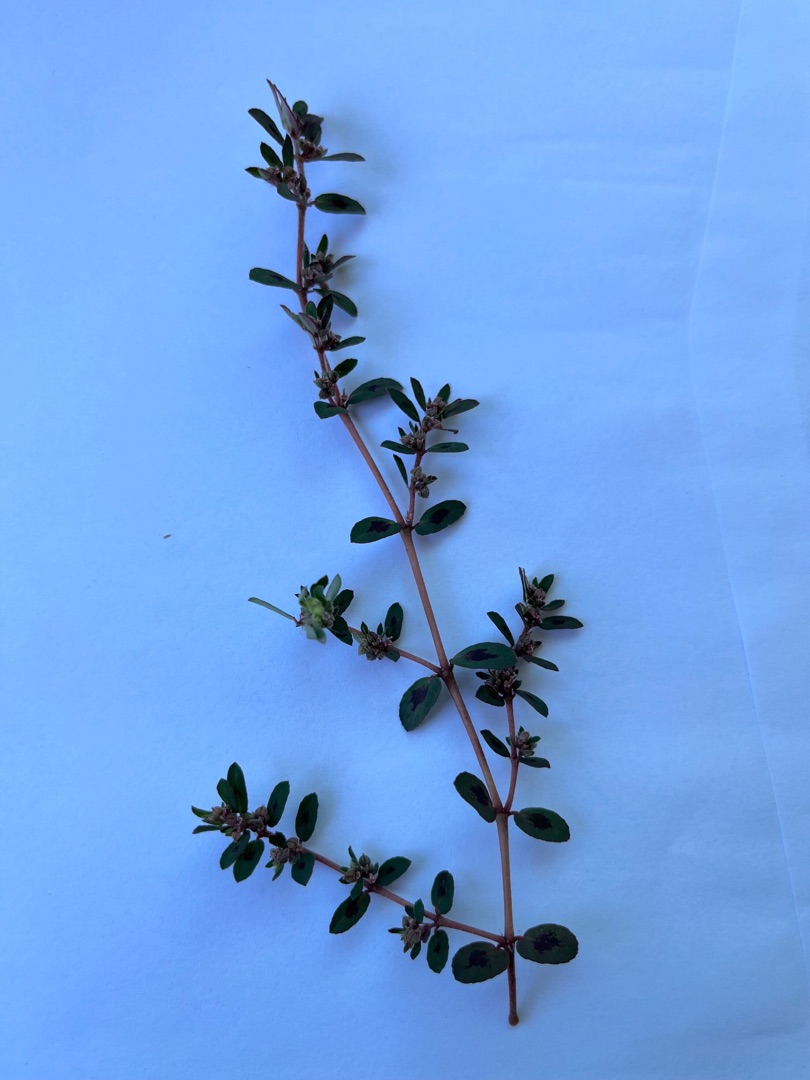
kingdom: Plantae
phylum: Tracheophyta
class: Magnoliopsida
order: Malpighiales
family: Euphorbiaceae
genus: Euphorbia
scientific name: Euphorbia maculata
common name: Plet-vortemælk
